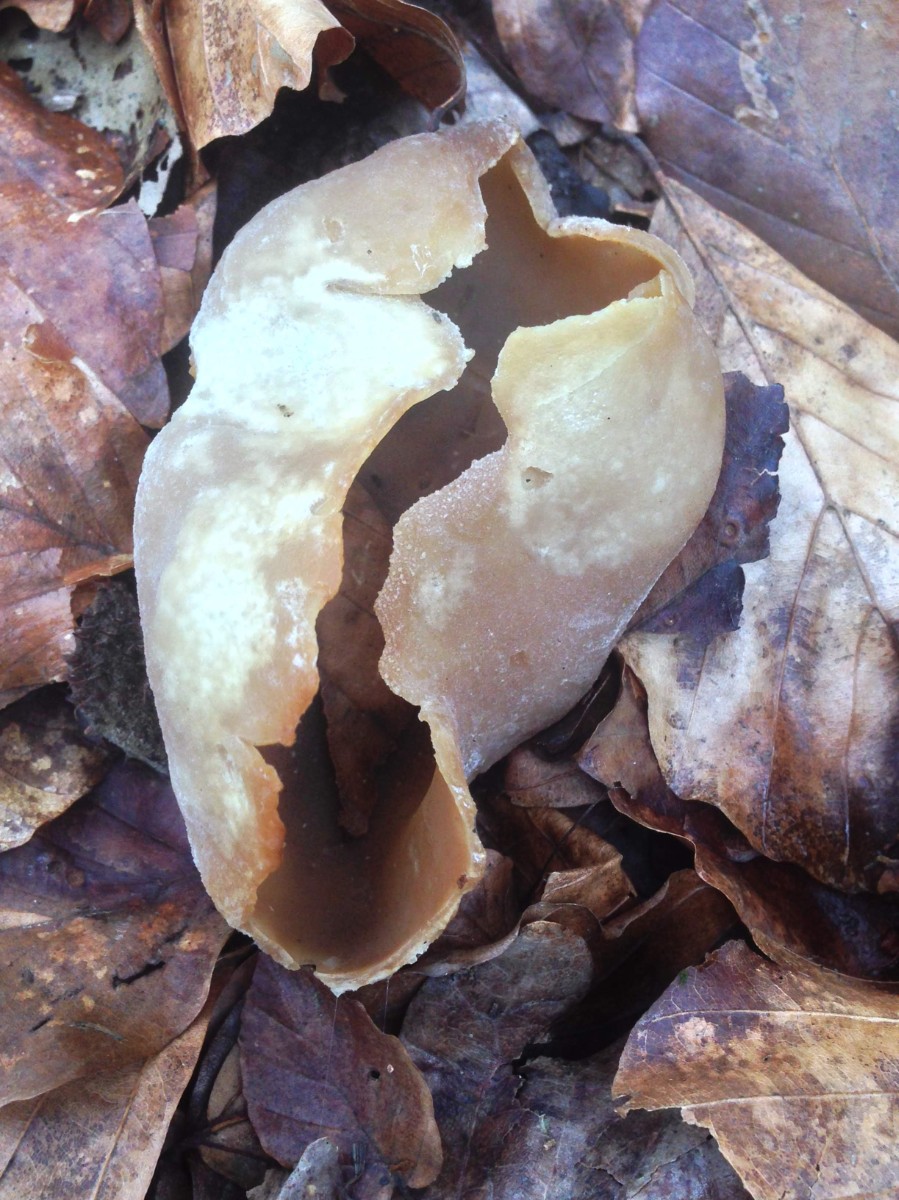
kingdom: Fungi
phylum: Ascomycota
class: Pezizomycetes
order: Pezizales
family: Pezizaceae
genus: Peziza
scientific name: Peziza
